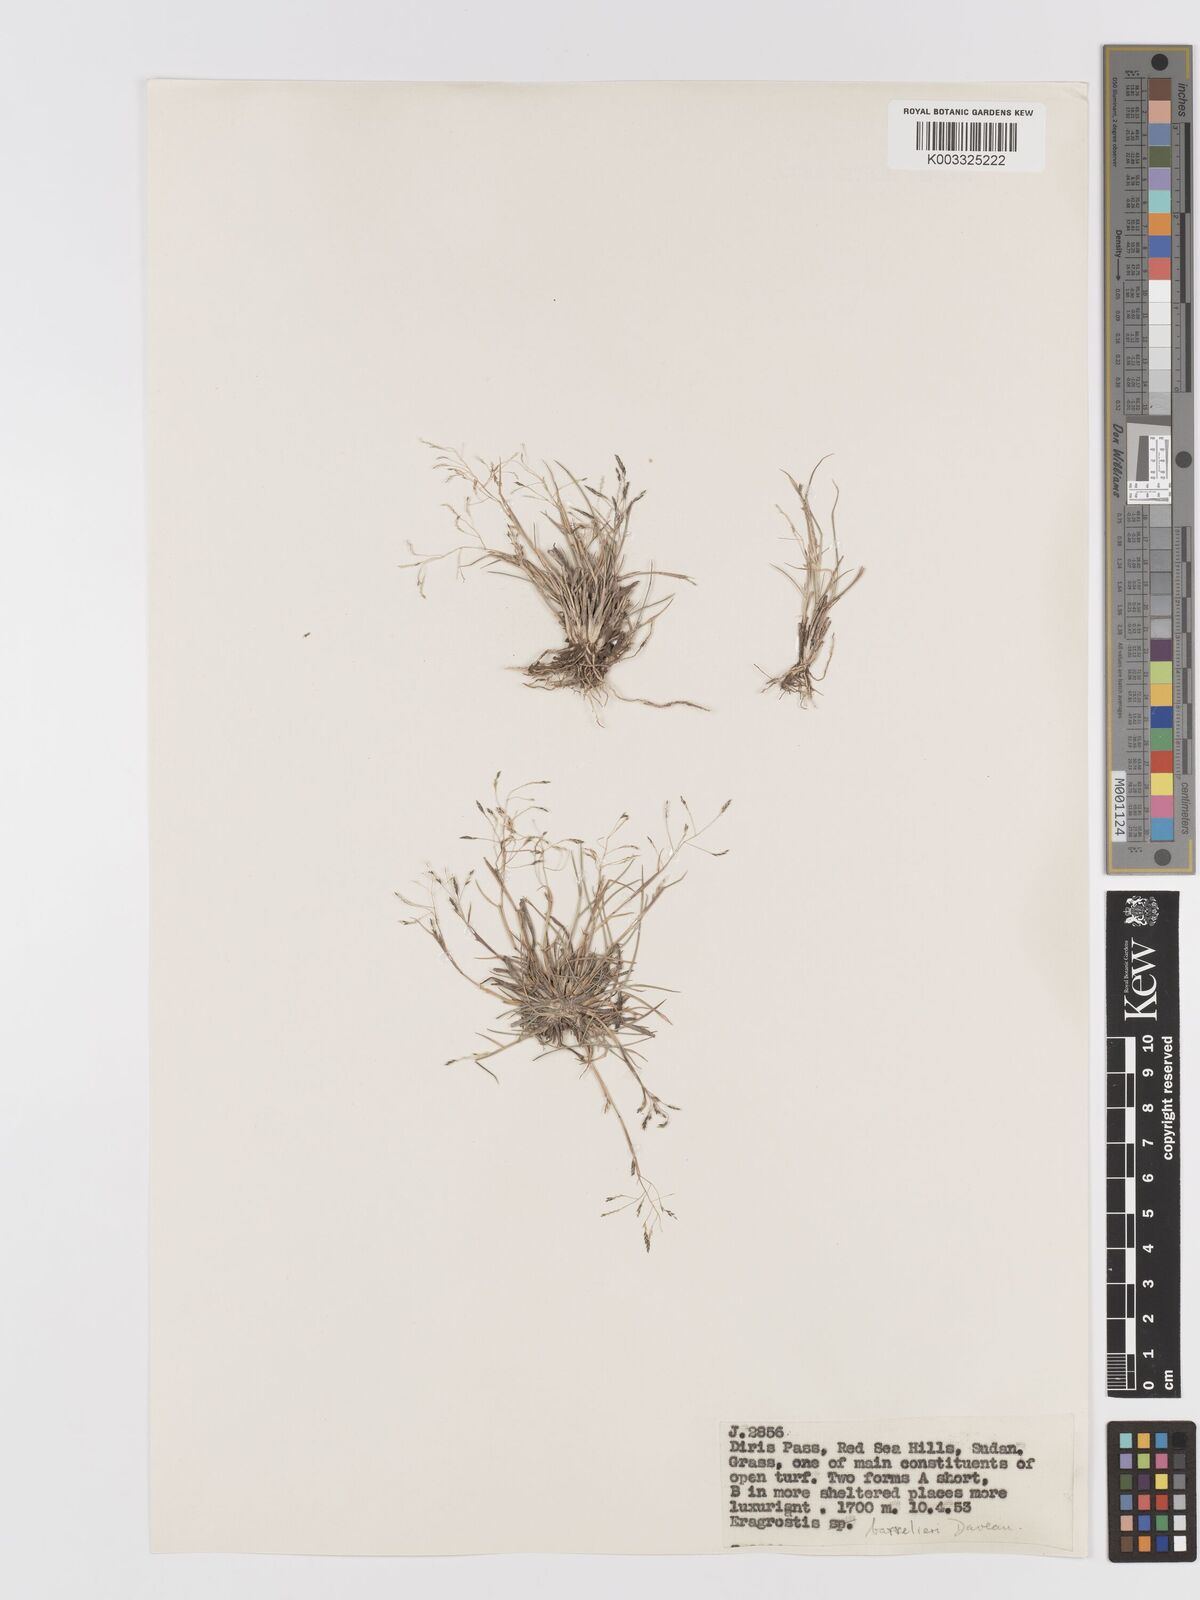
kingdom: Plantae
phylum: Tracheophyta
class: Liliopsida
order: Poales
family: Poaceae
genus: Eragrostis
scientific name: Eragrostis papposa
